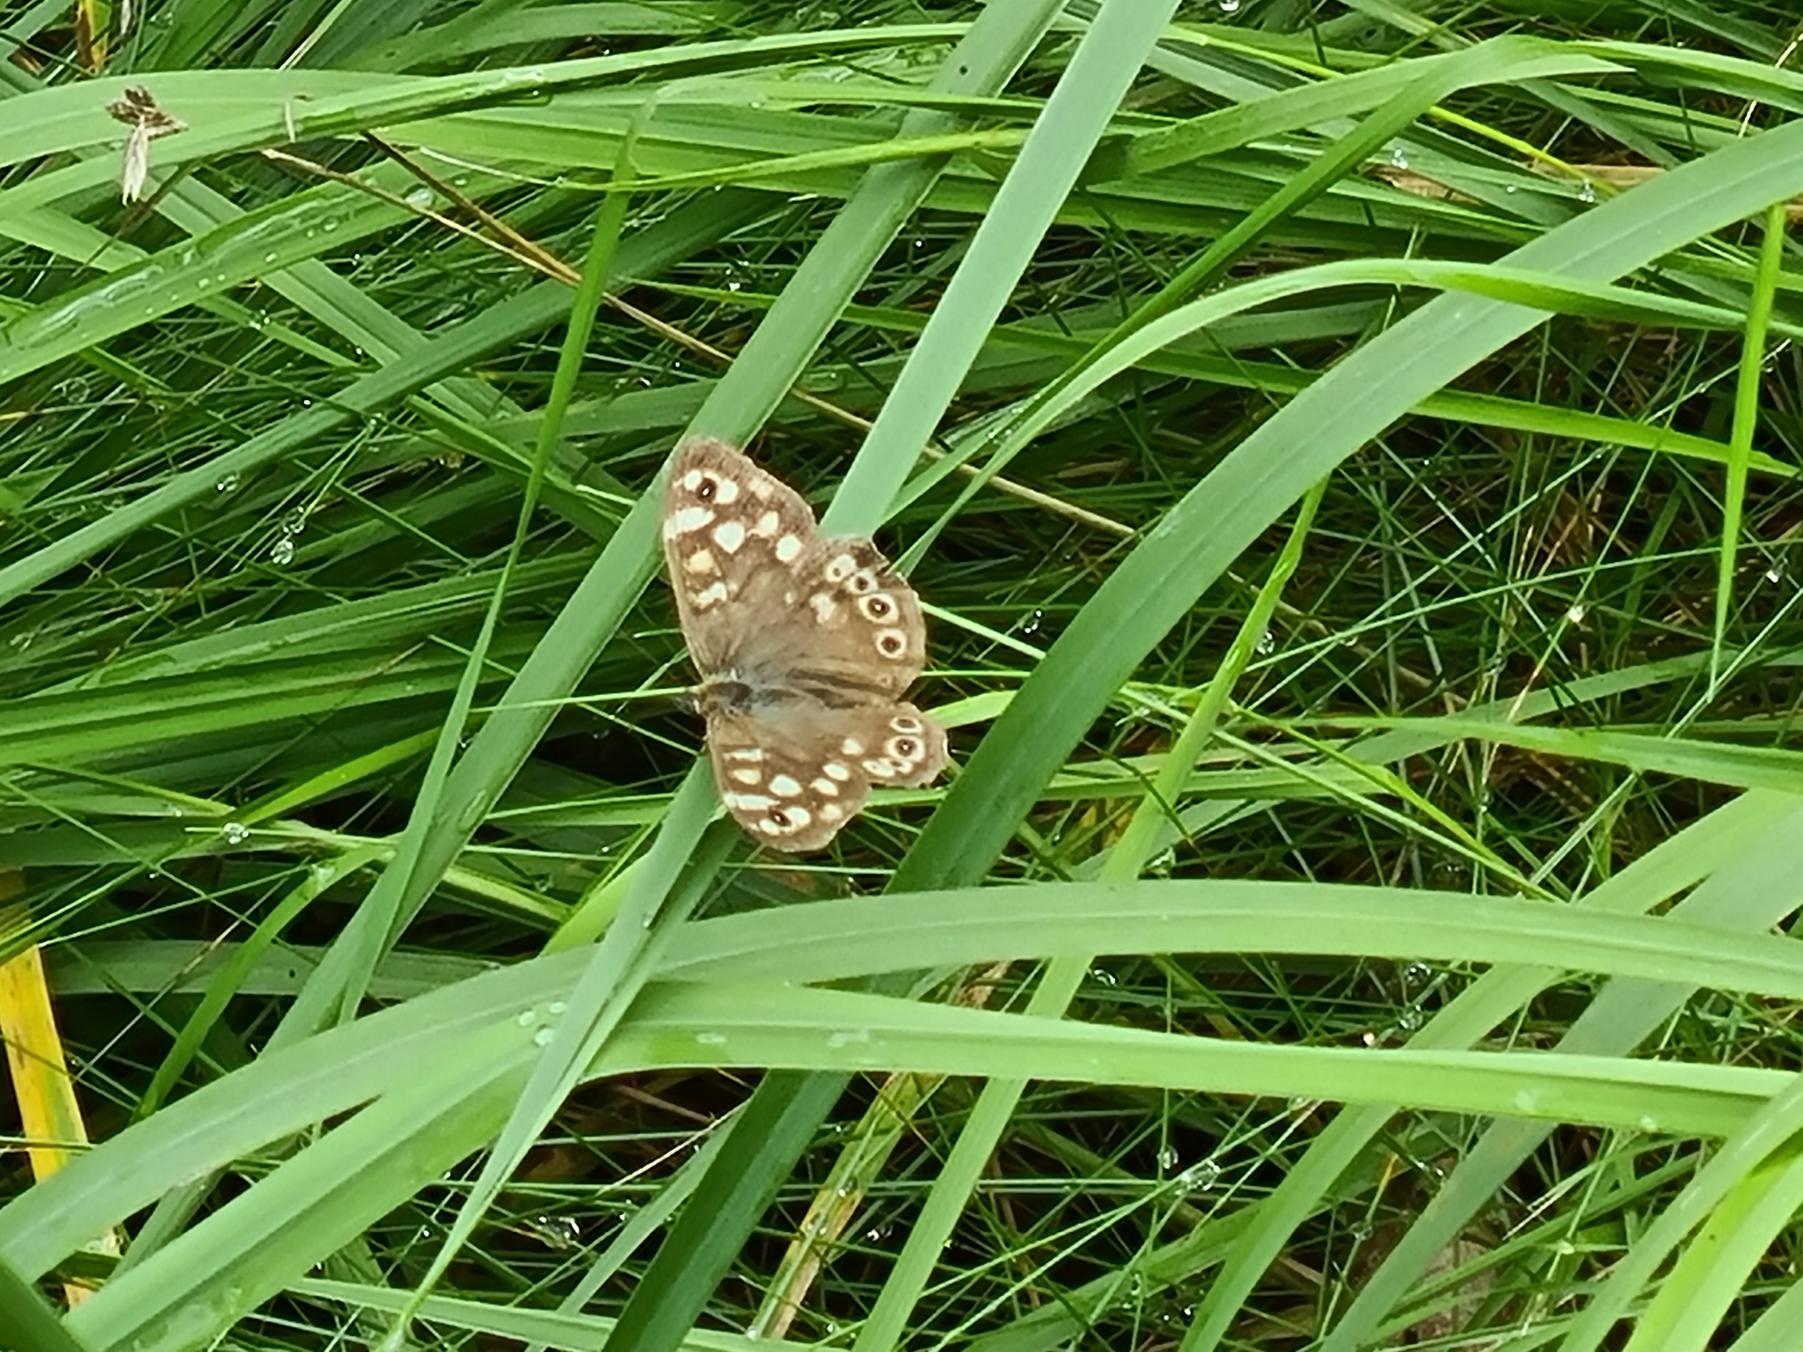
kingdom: Animalia
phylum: Arthropoda
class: Insecta
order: Lepidoptera
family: Nymphalidae
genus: Pararge
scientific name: Pararge aegeria
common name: Skovrandøje
